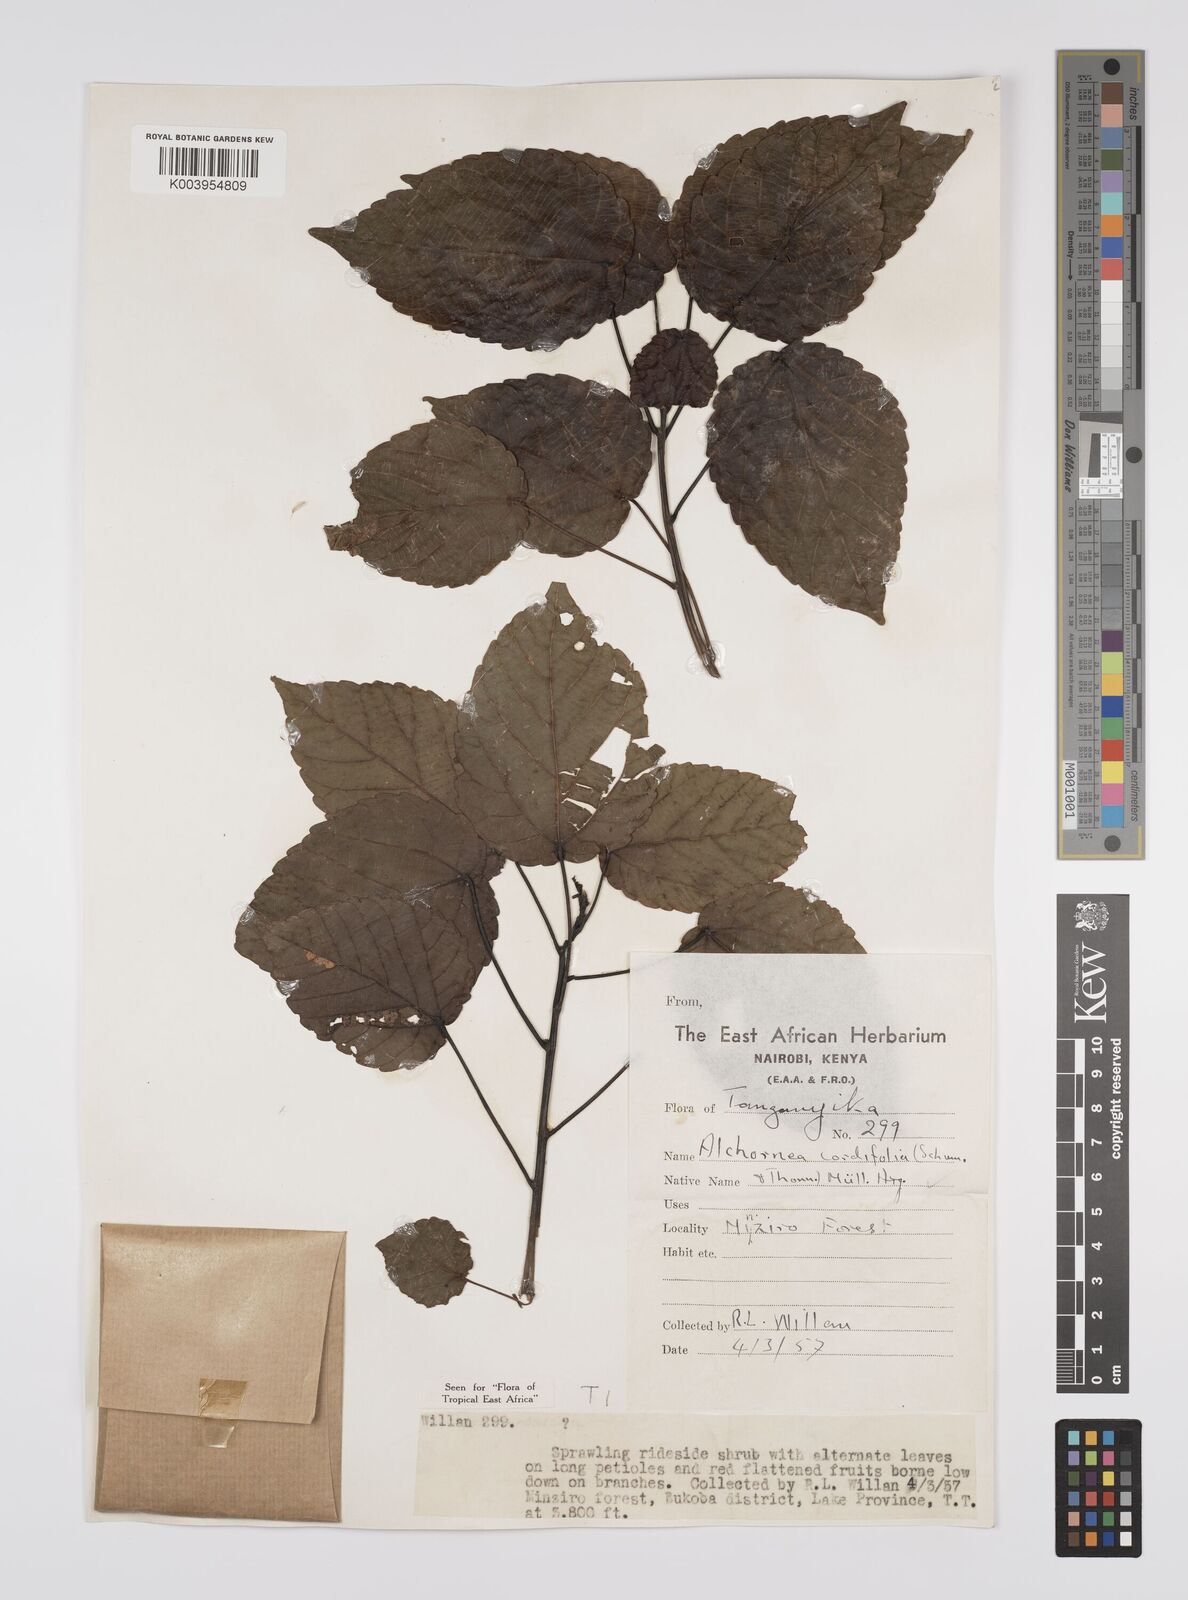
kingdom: Plantae
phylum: Tracheophyta
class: Magnoliopsida
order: Malpighiales
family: Euphorbiaceae
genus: Alchornea
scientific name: Alchornea cordifolia
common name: Christmasbush
